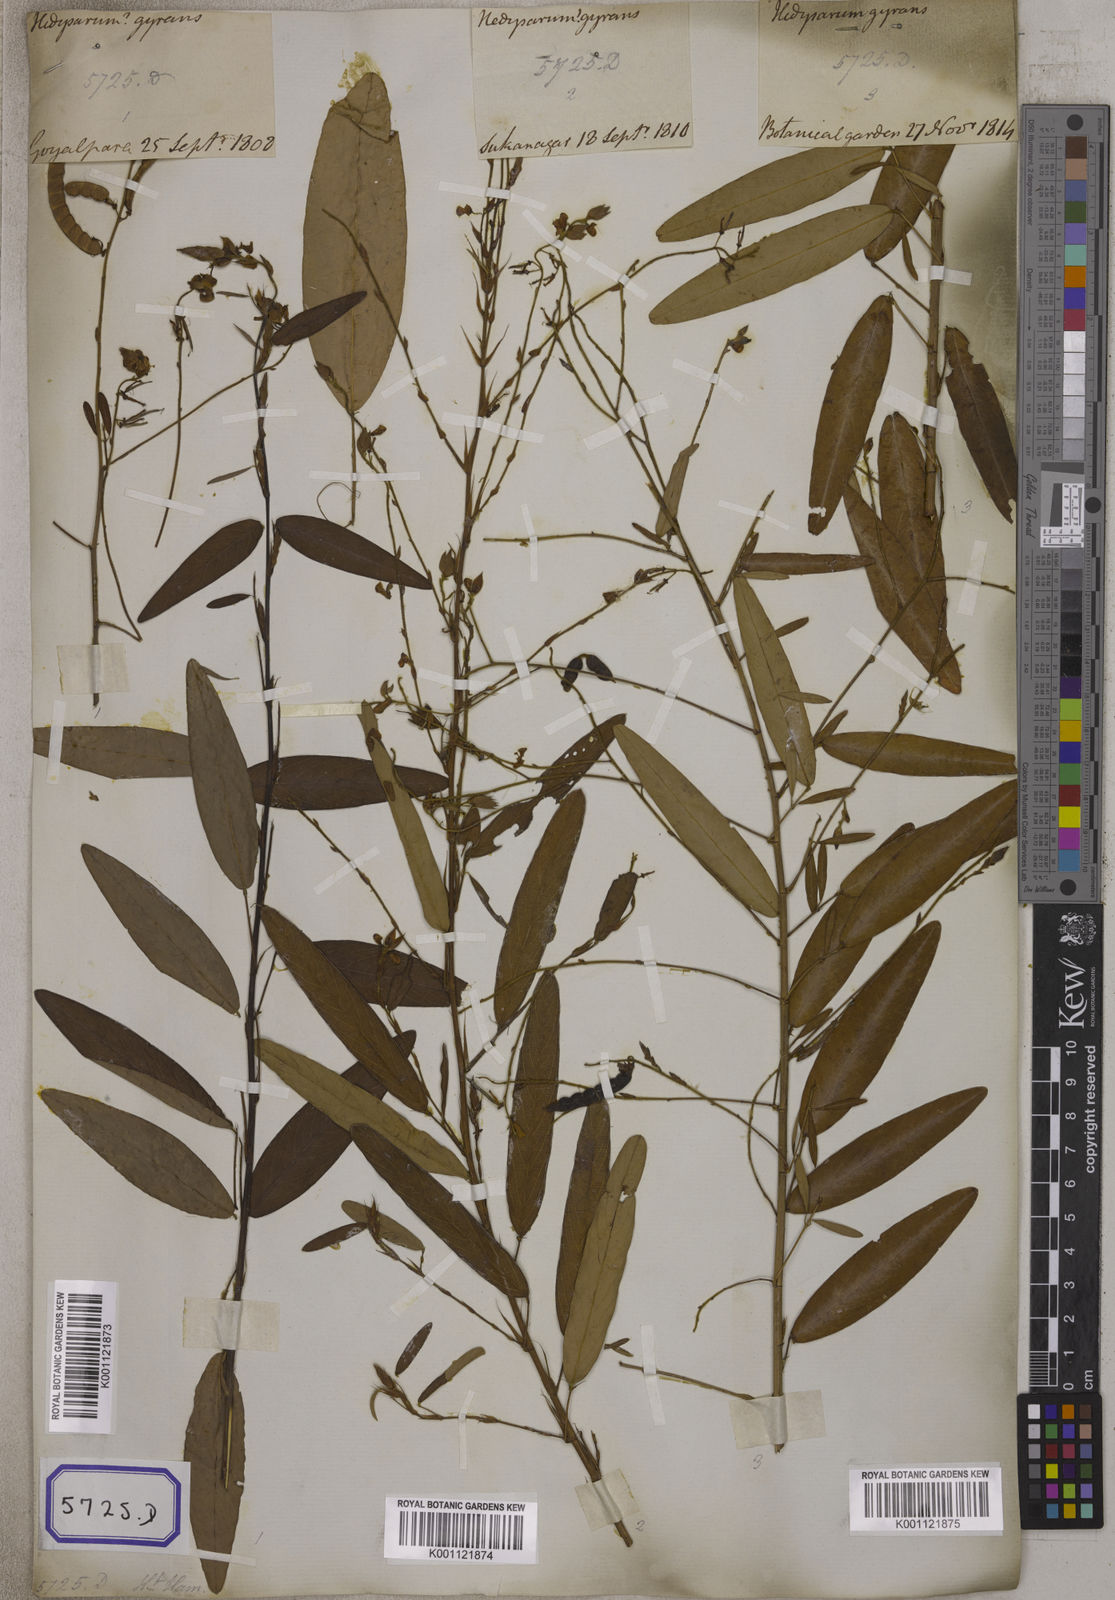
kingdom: Plantae
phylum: Tracheophyta
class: Magnoliopsida
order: Fabales
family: Fabaceae
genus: Codariocalyx
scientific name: Codariocalyx motorius
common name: Telegraph-plant
